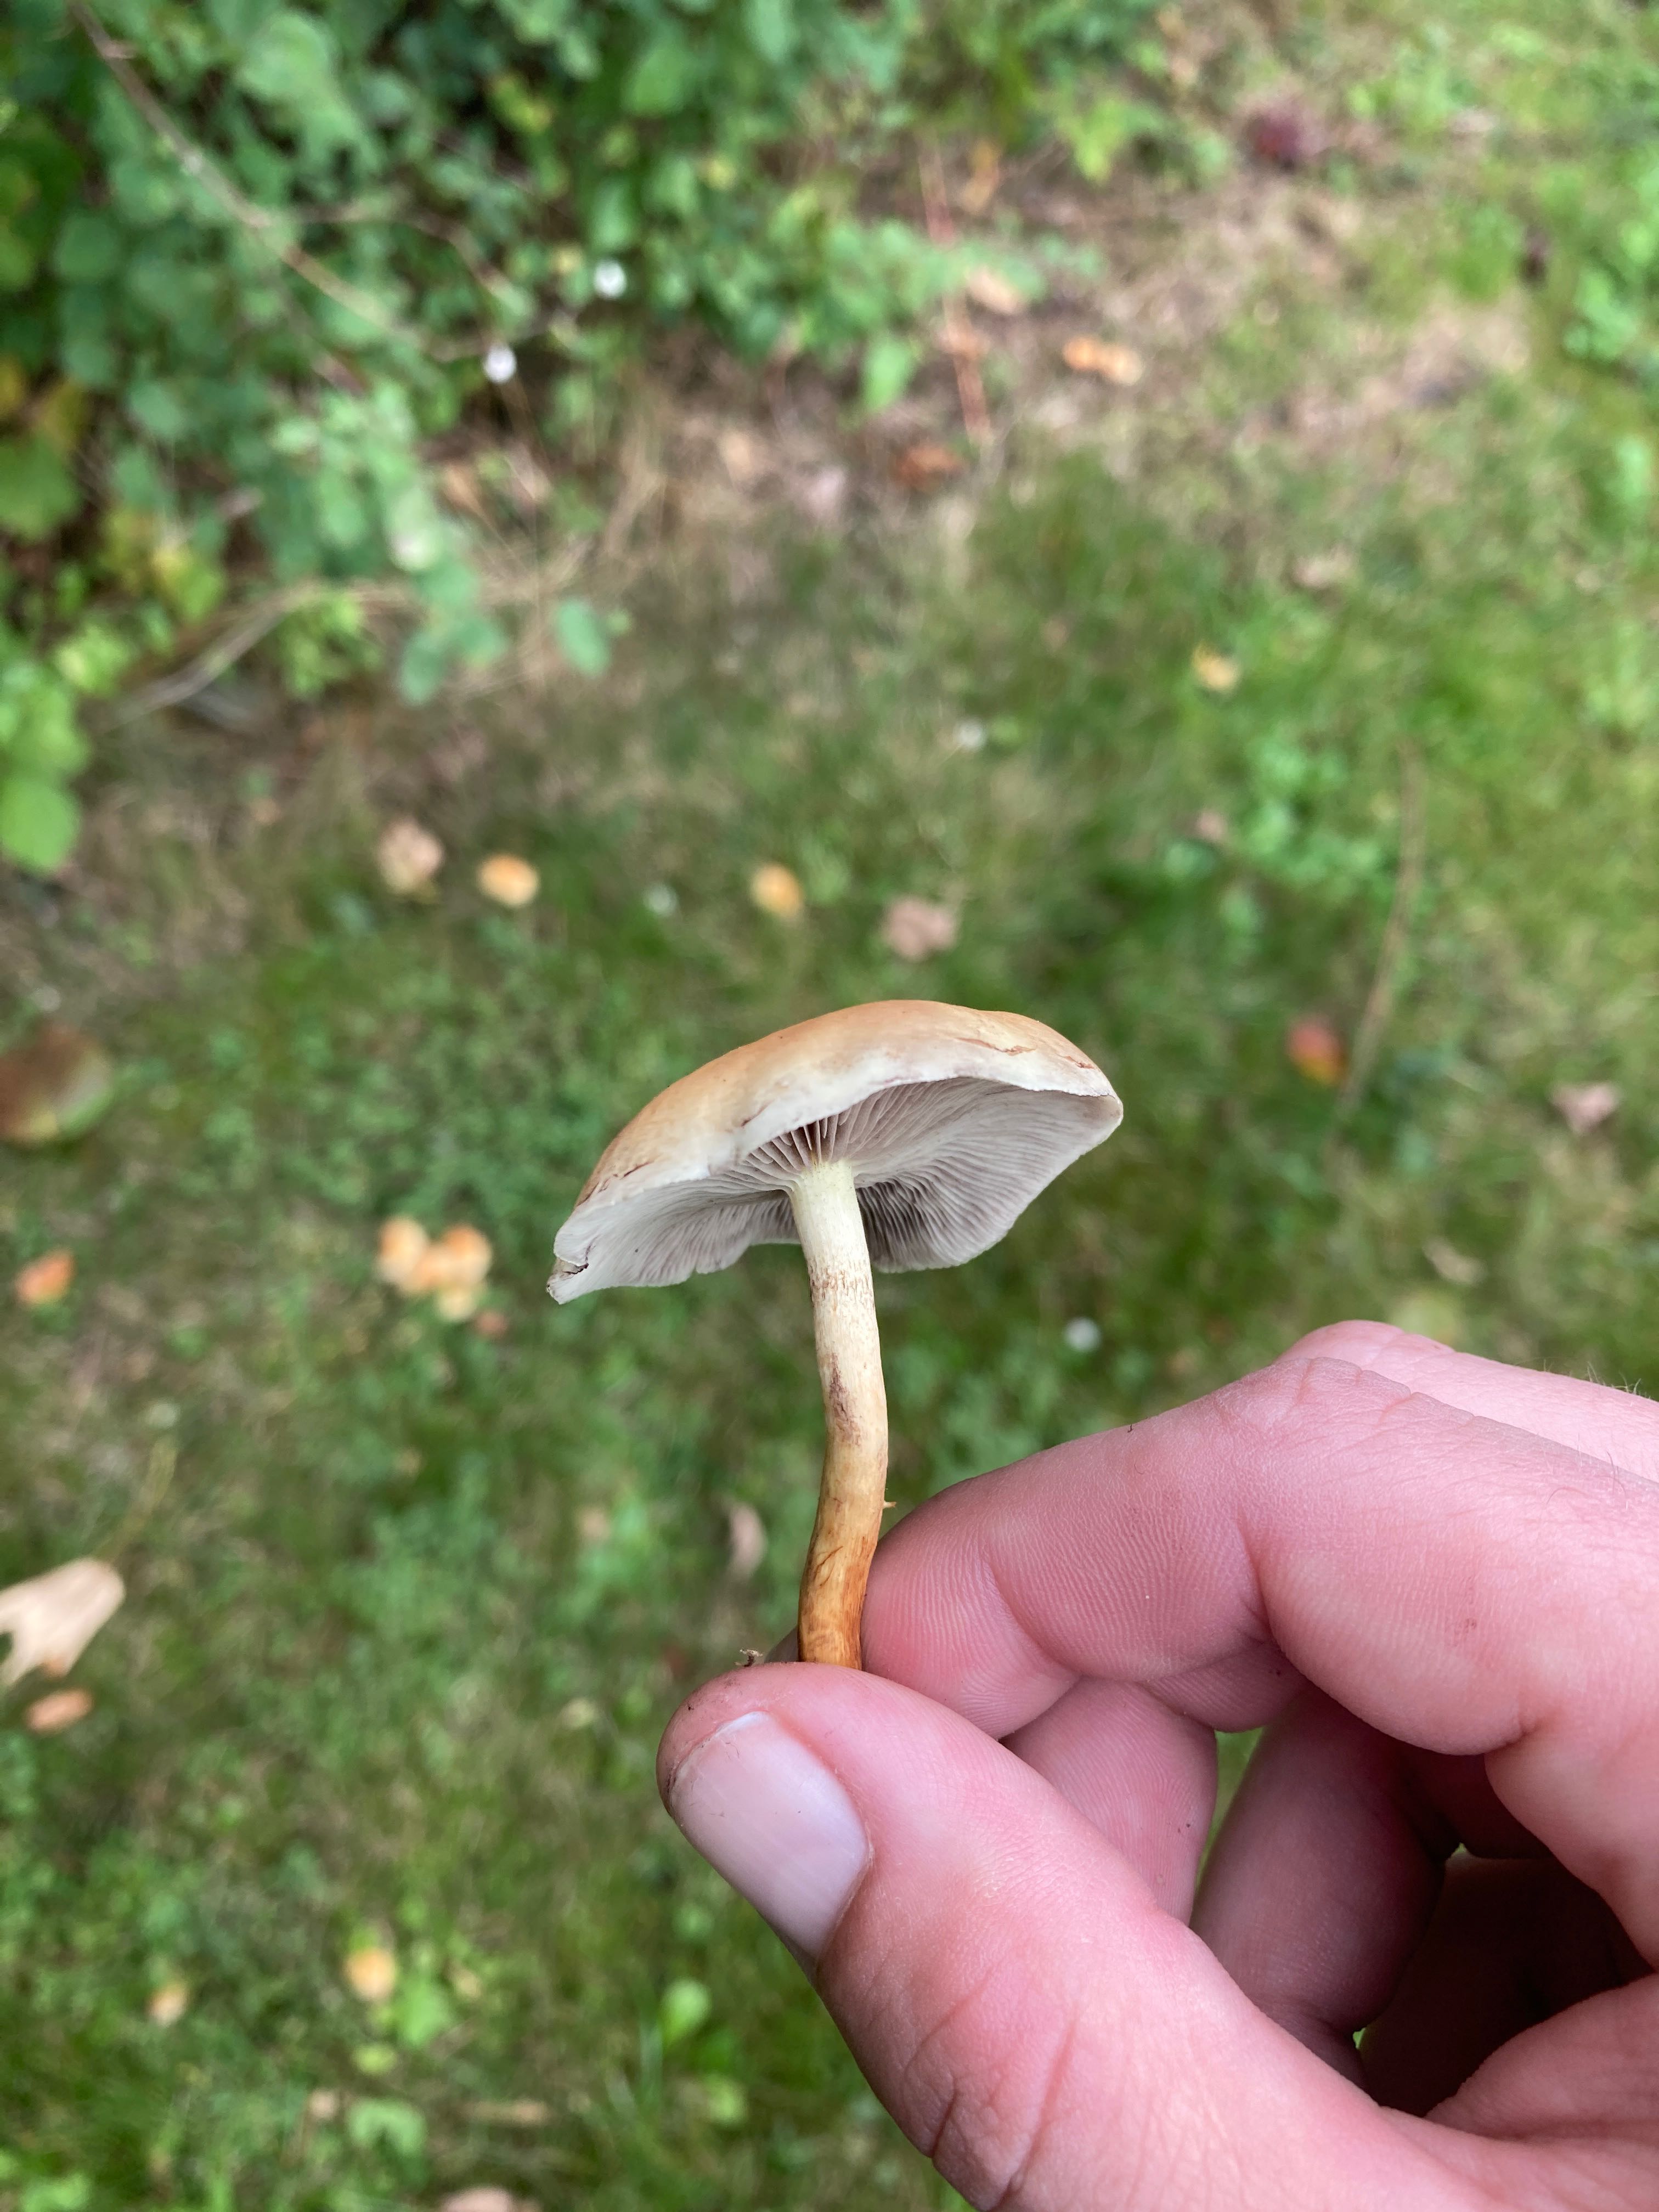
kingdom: Fungi
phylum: Basidiomycota
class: Agaricomycetes
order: Agaricales
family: Strophariaceae
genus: Hypholoma
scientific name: Hypholoma fasciculare
